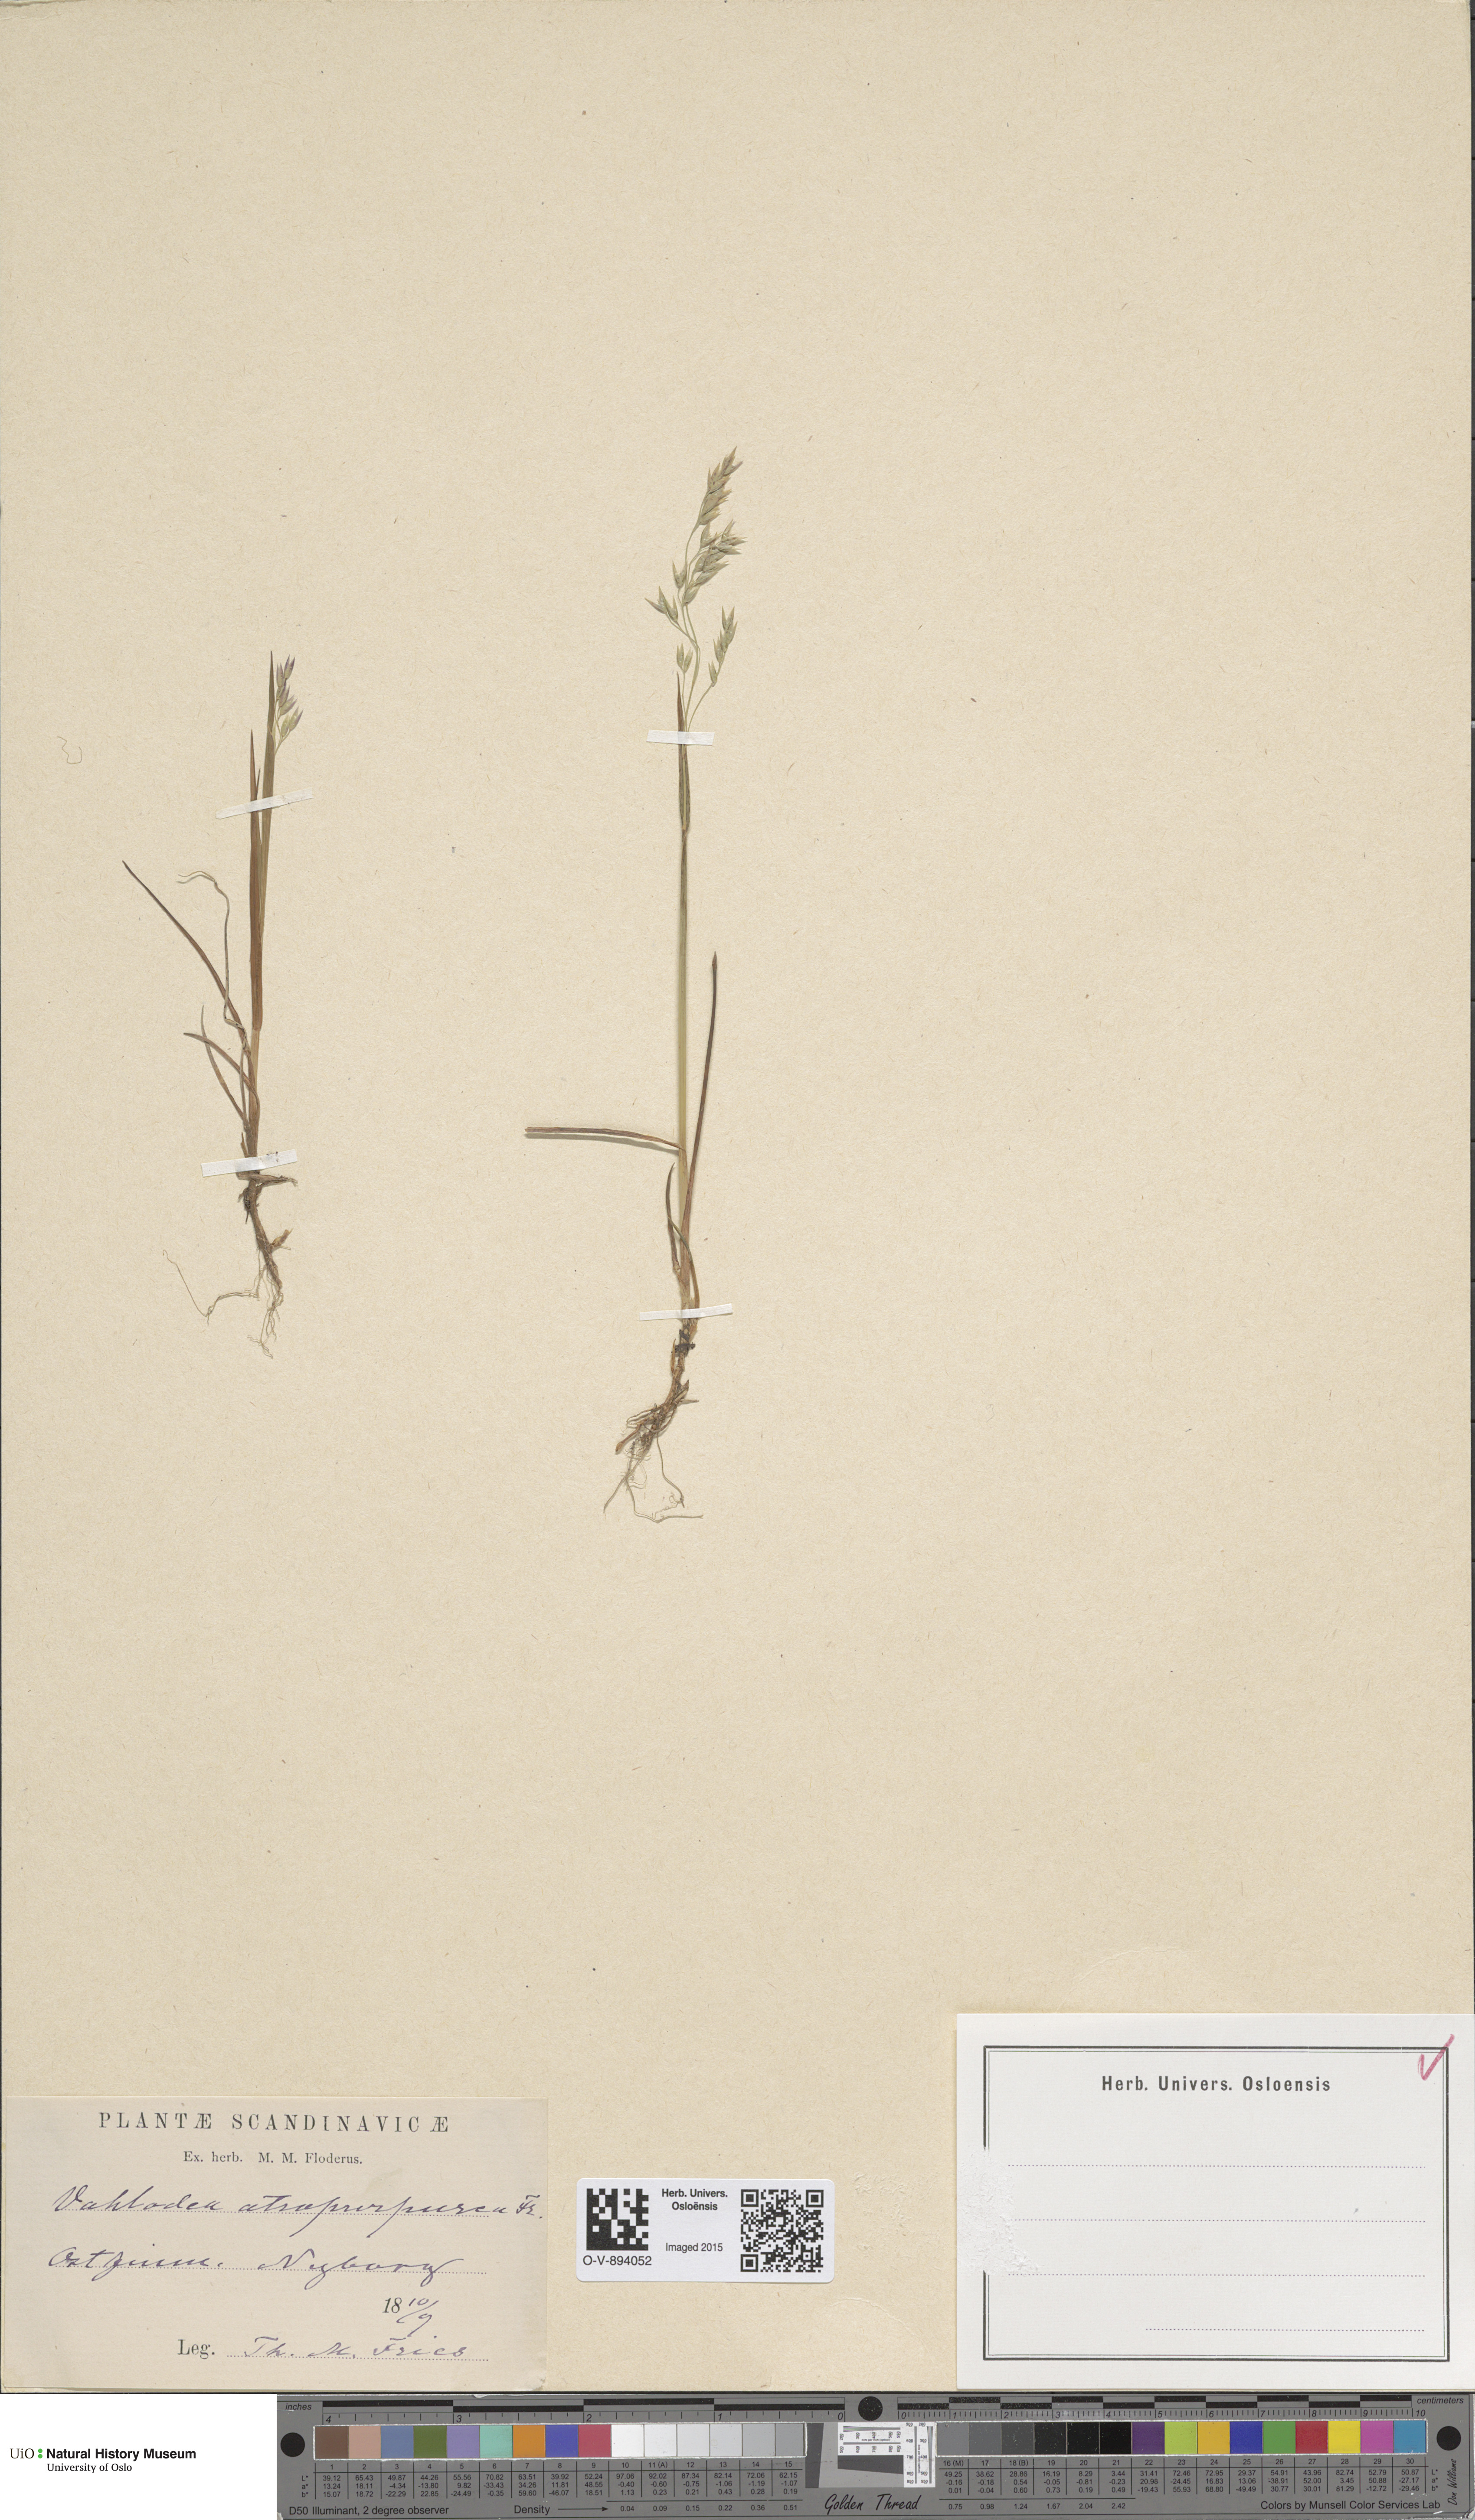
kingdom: Plantae
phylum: Tracheophyta
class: Liliopsida
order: Poales
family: Poaceae
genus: Vahlodea
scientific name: Vahlodea atropurpurea
